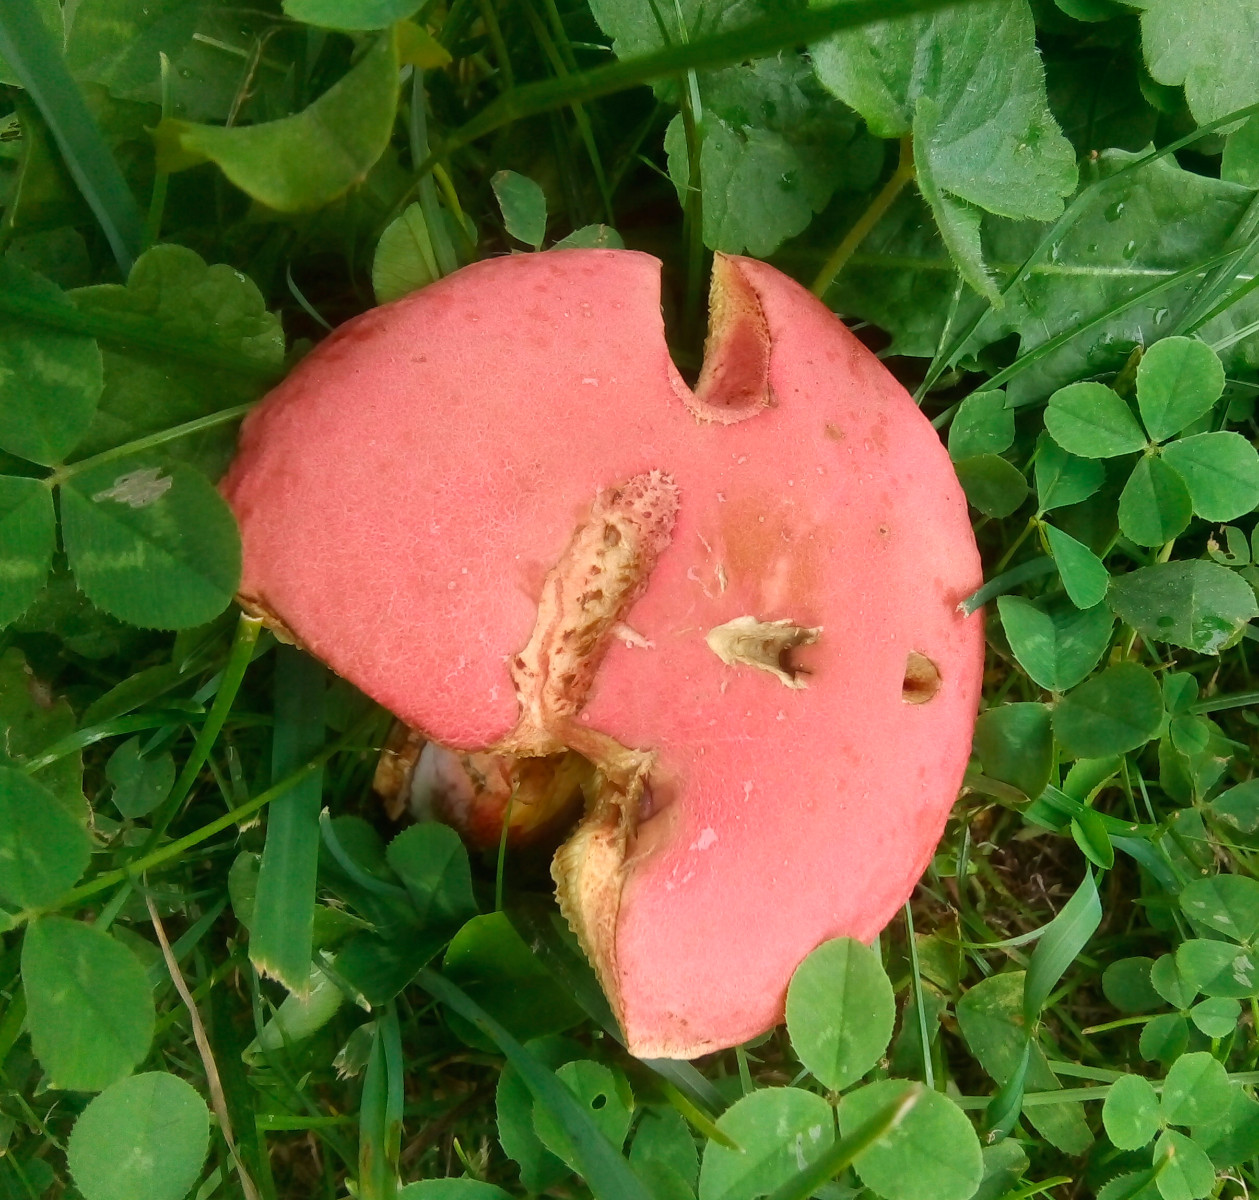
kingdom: Fungi
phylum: Basidiomycota
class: Agaricomycetes
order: Boletales
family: Boletaceae
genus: Hortiboletus
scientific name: Hortiboletus rubellus
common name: blodrød rørhat
